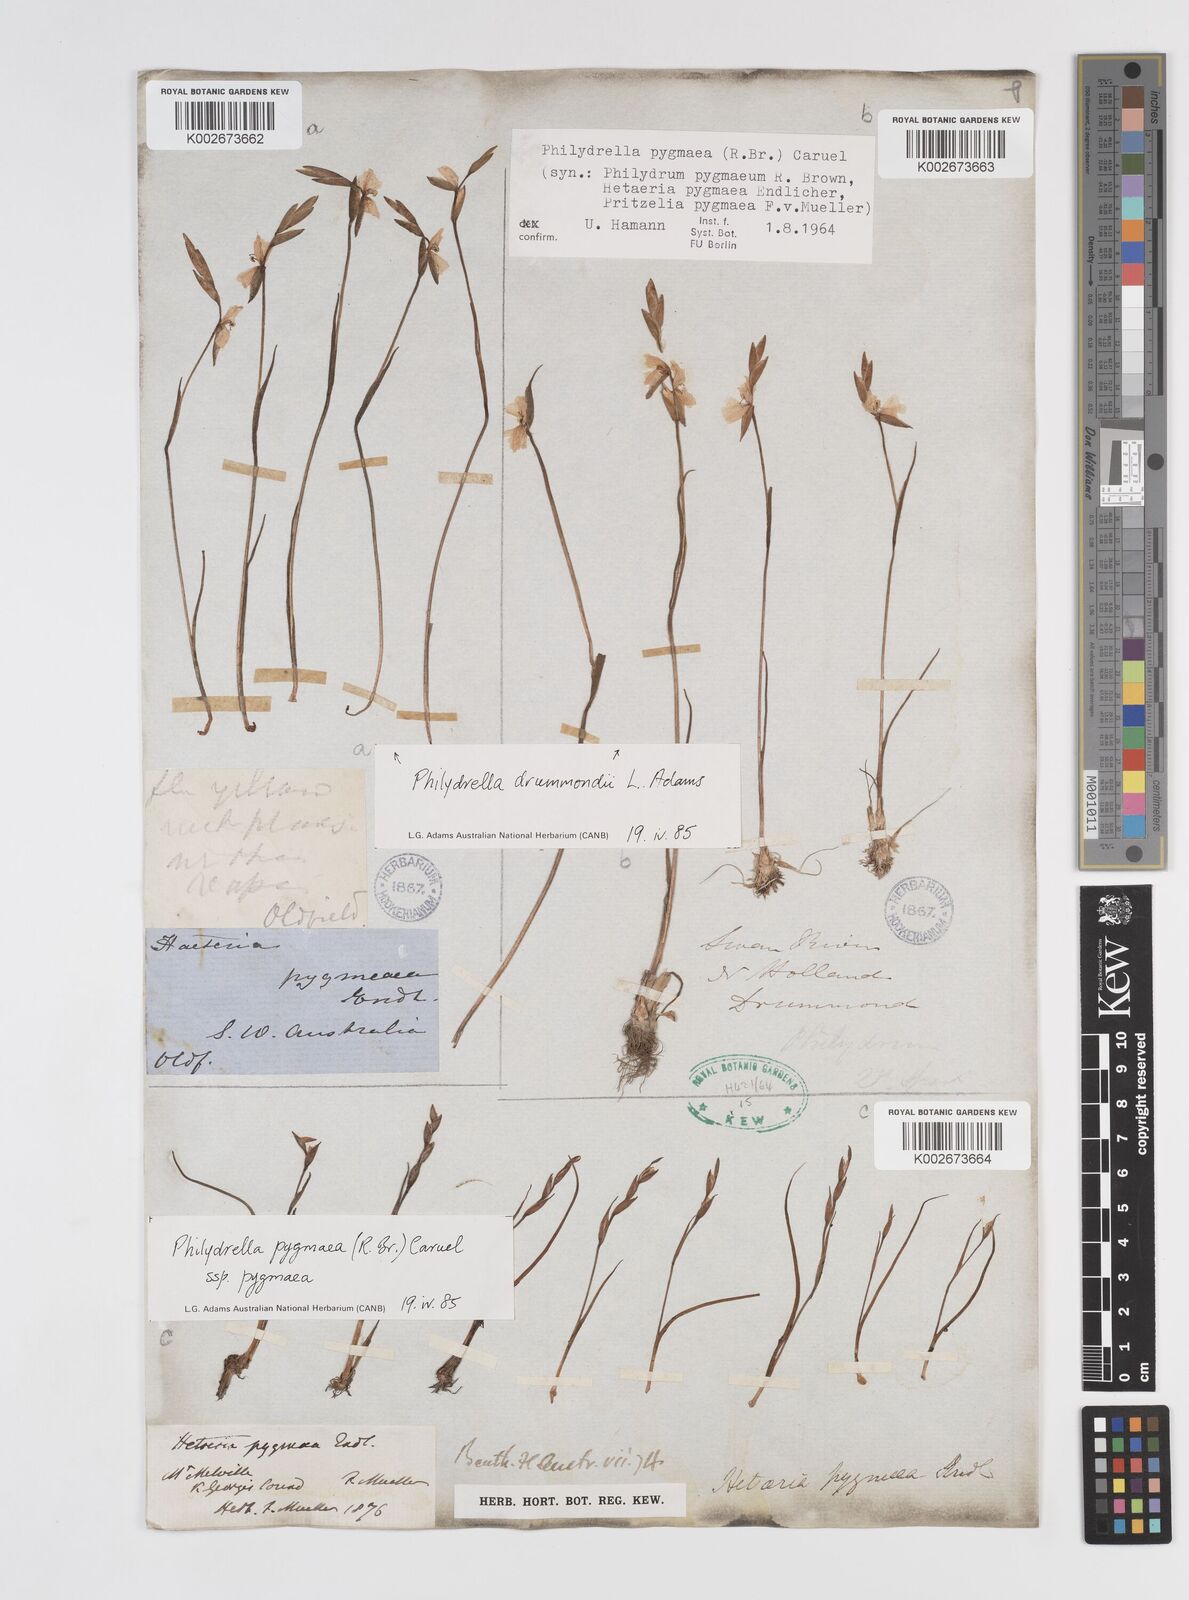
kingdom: Plantae
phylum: Tracheophyta
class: Liliopsida
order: Commelinales
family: Philydraceae
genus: Philydrella
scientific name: Philydrella pygmaea
